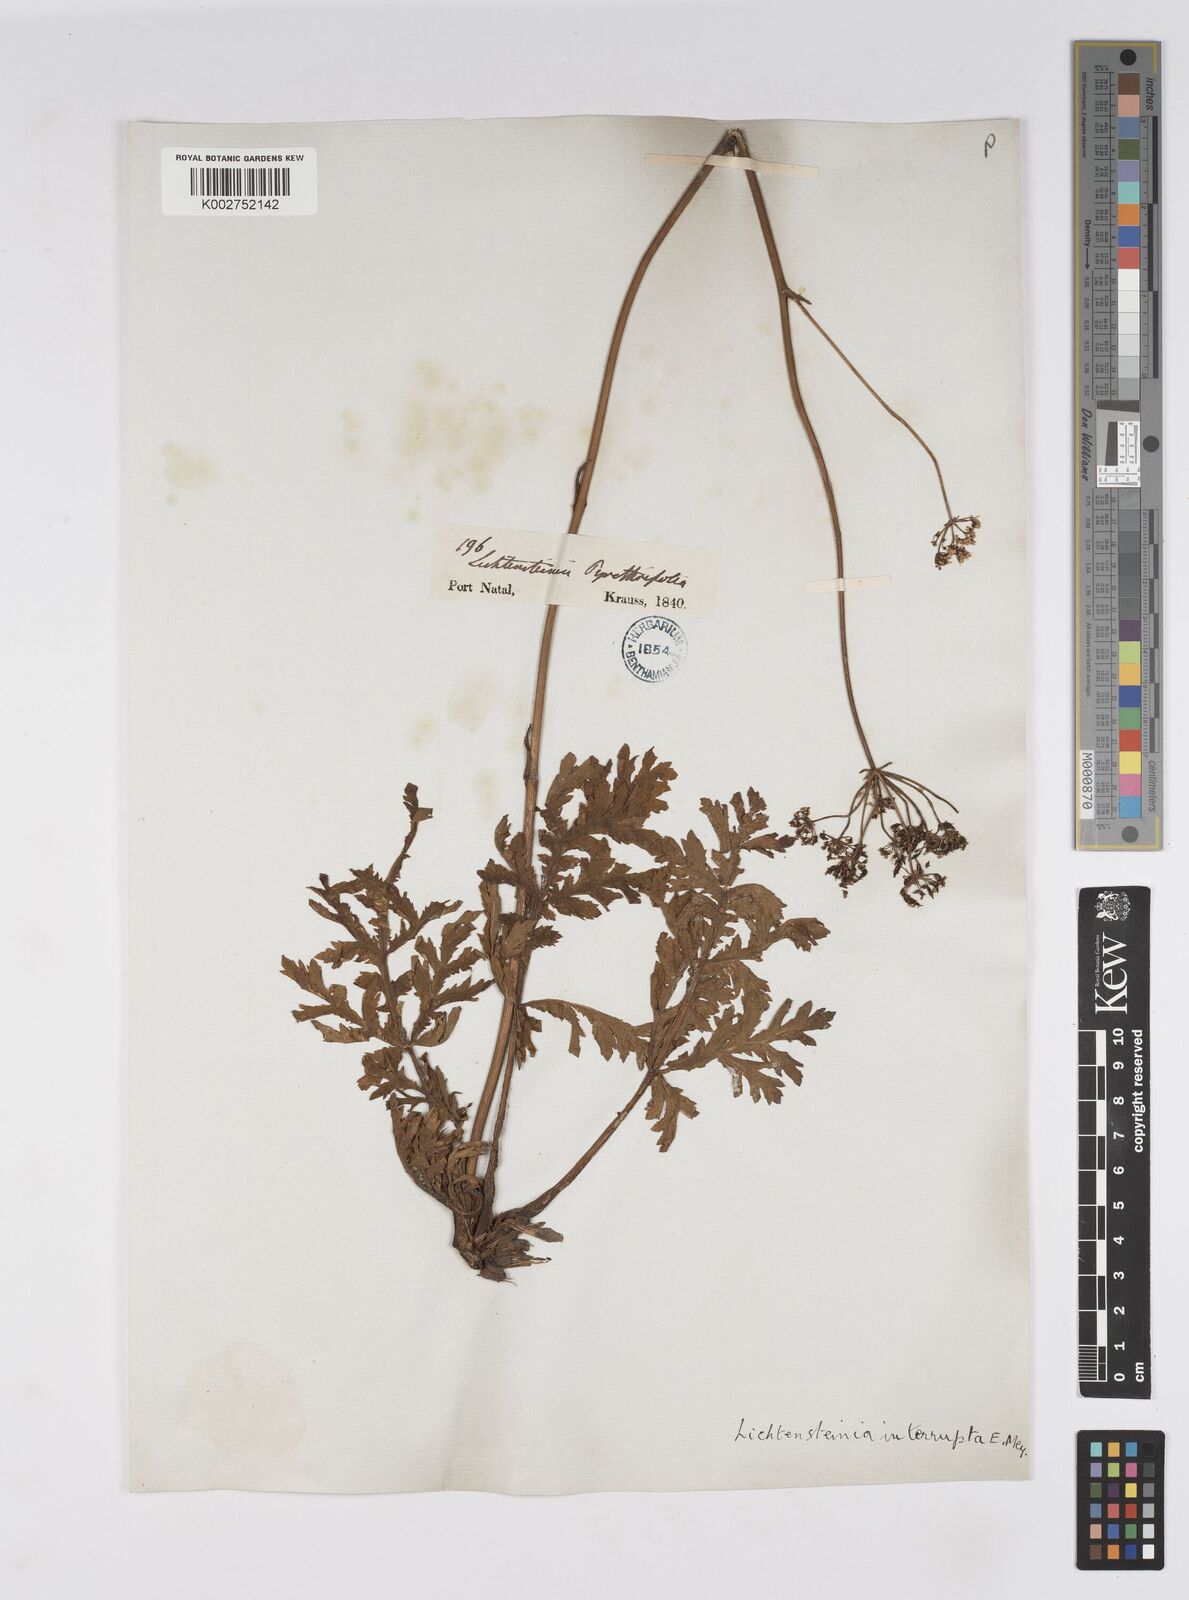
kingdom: Plantae
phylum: Tracheophyta
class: Magnoliopsida
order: Apiales
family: Apiaceae
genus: Lichtensteinia
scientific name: Lichtensteinia interrupta
